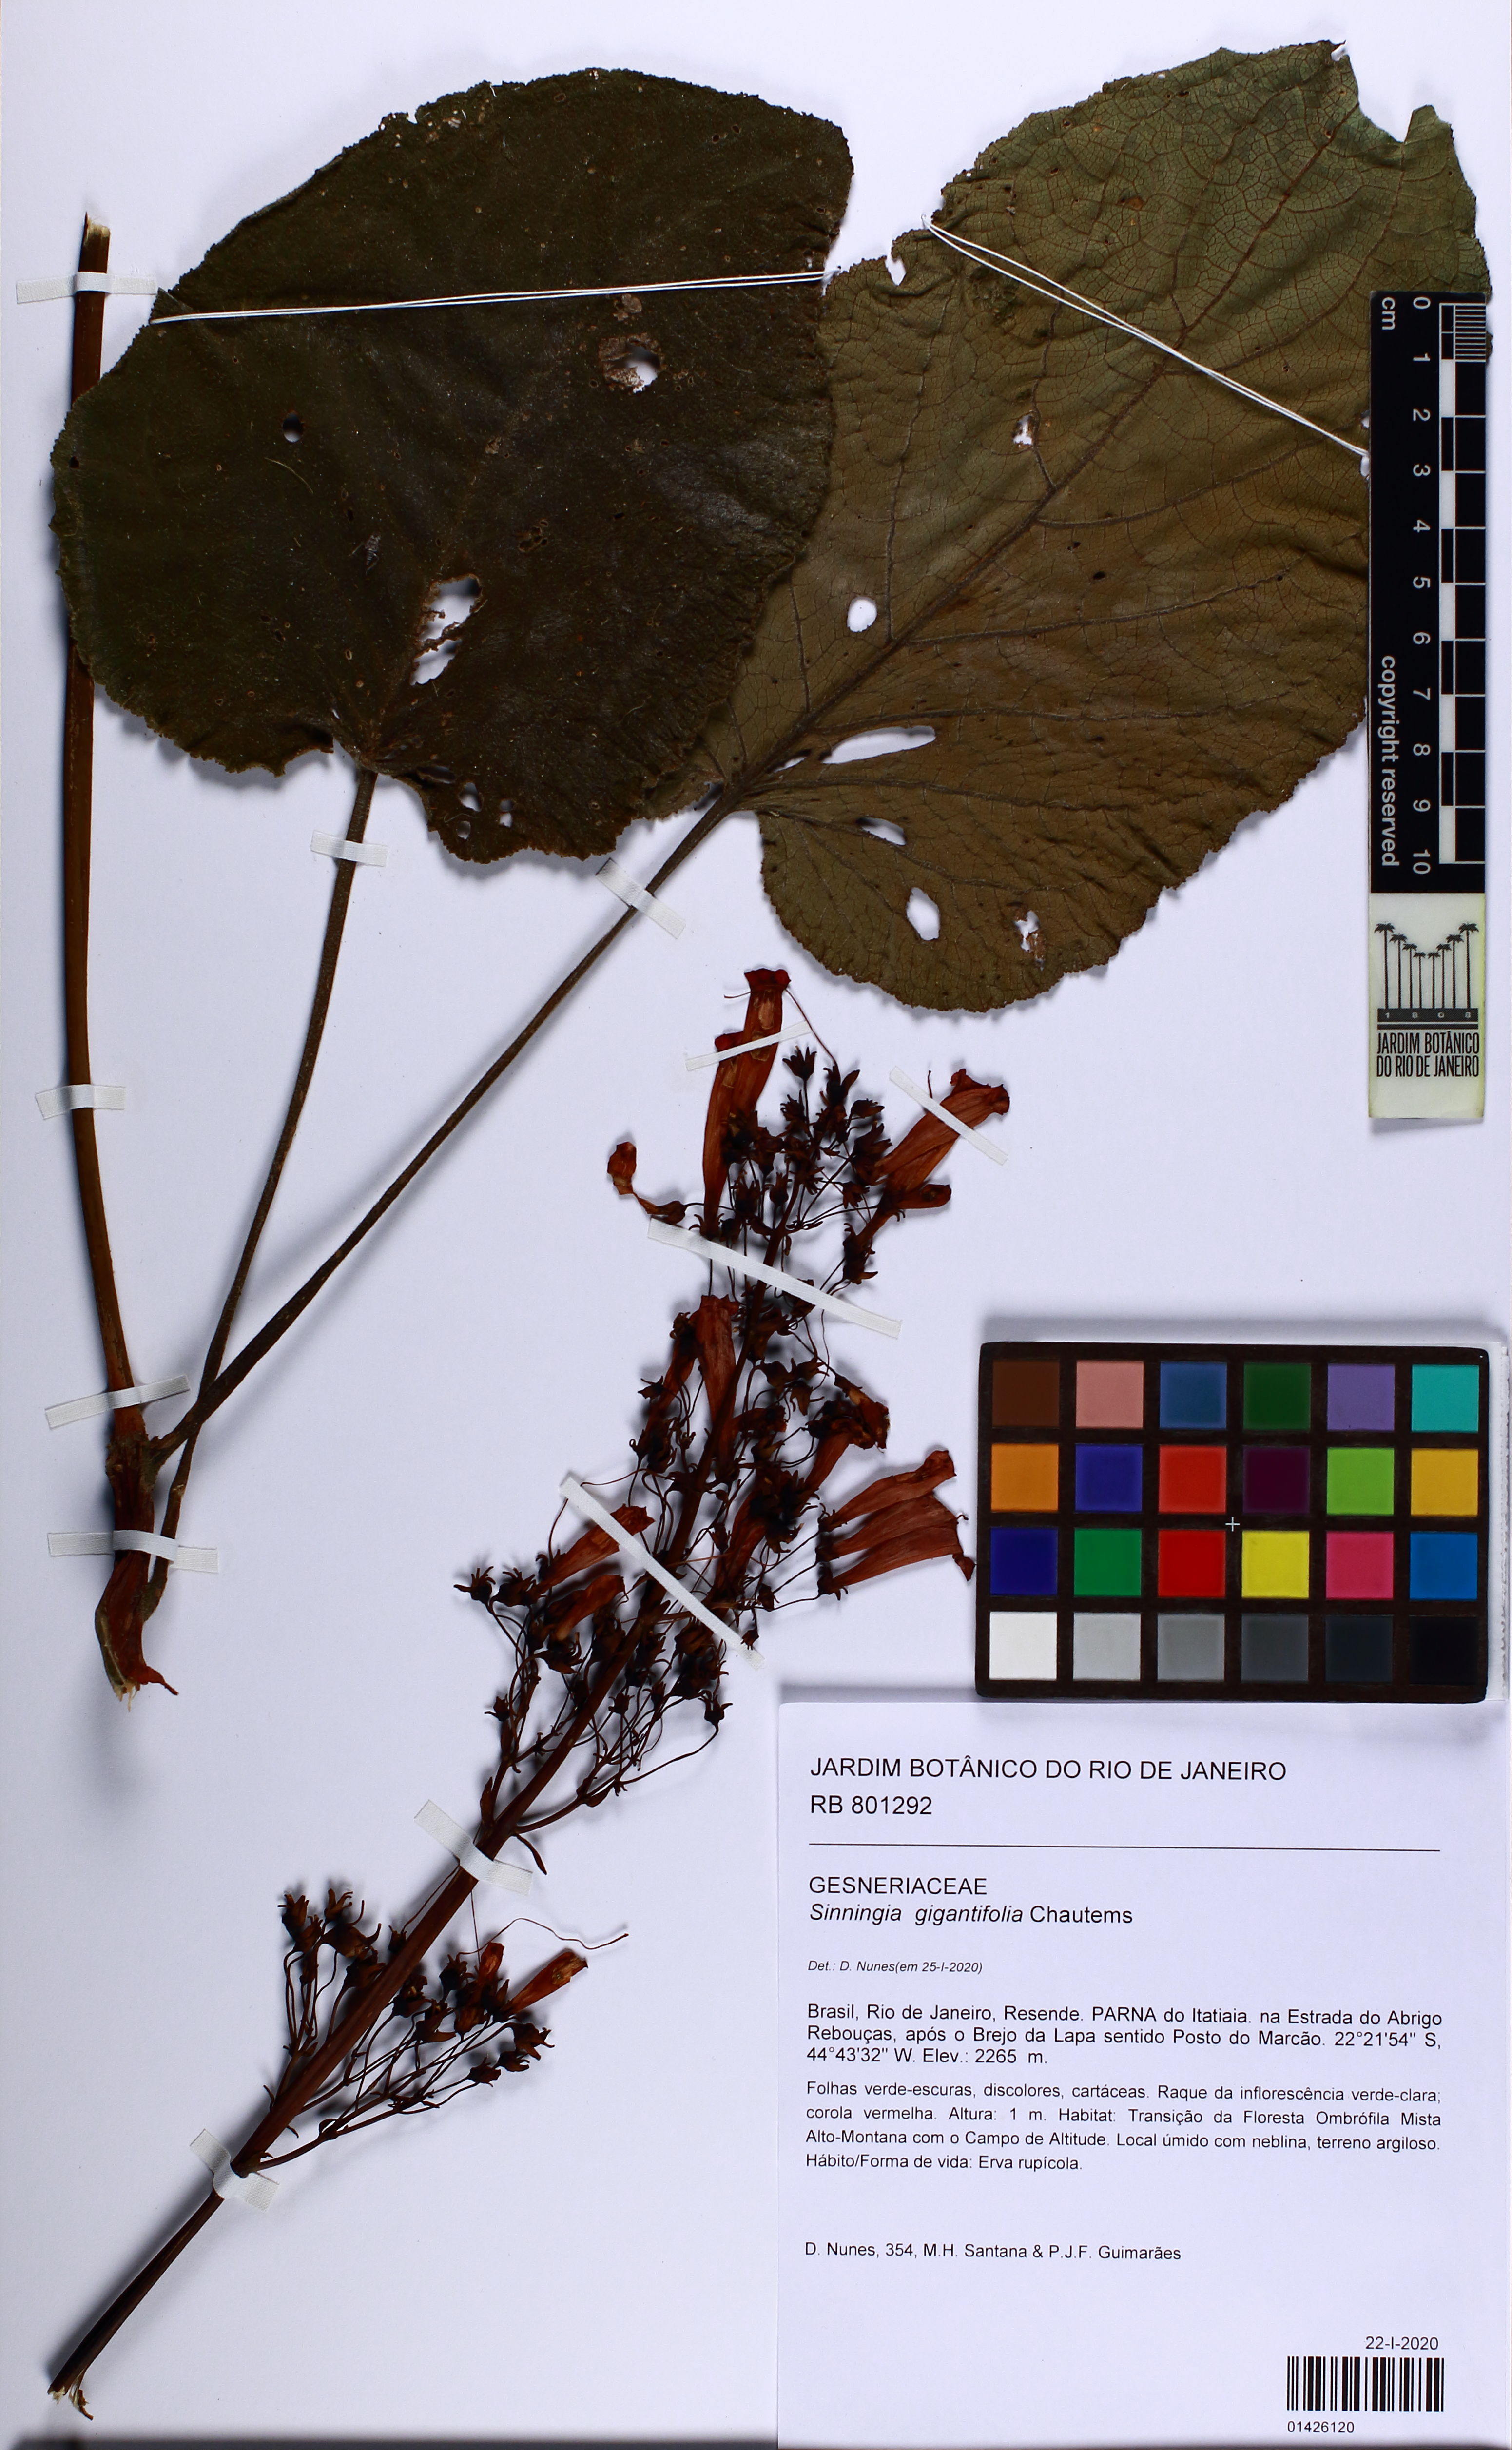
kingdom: Plantae
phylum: Tracheophyta
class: Magnoliopsida
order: Lamiales
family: Gesneriaceae
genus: Sinningia
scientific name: Sinningia gigantifolia
